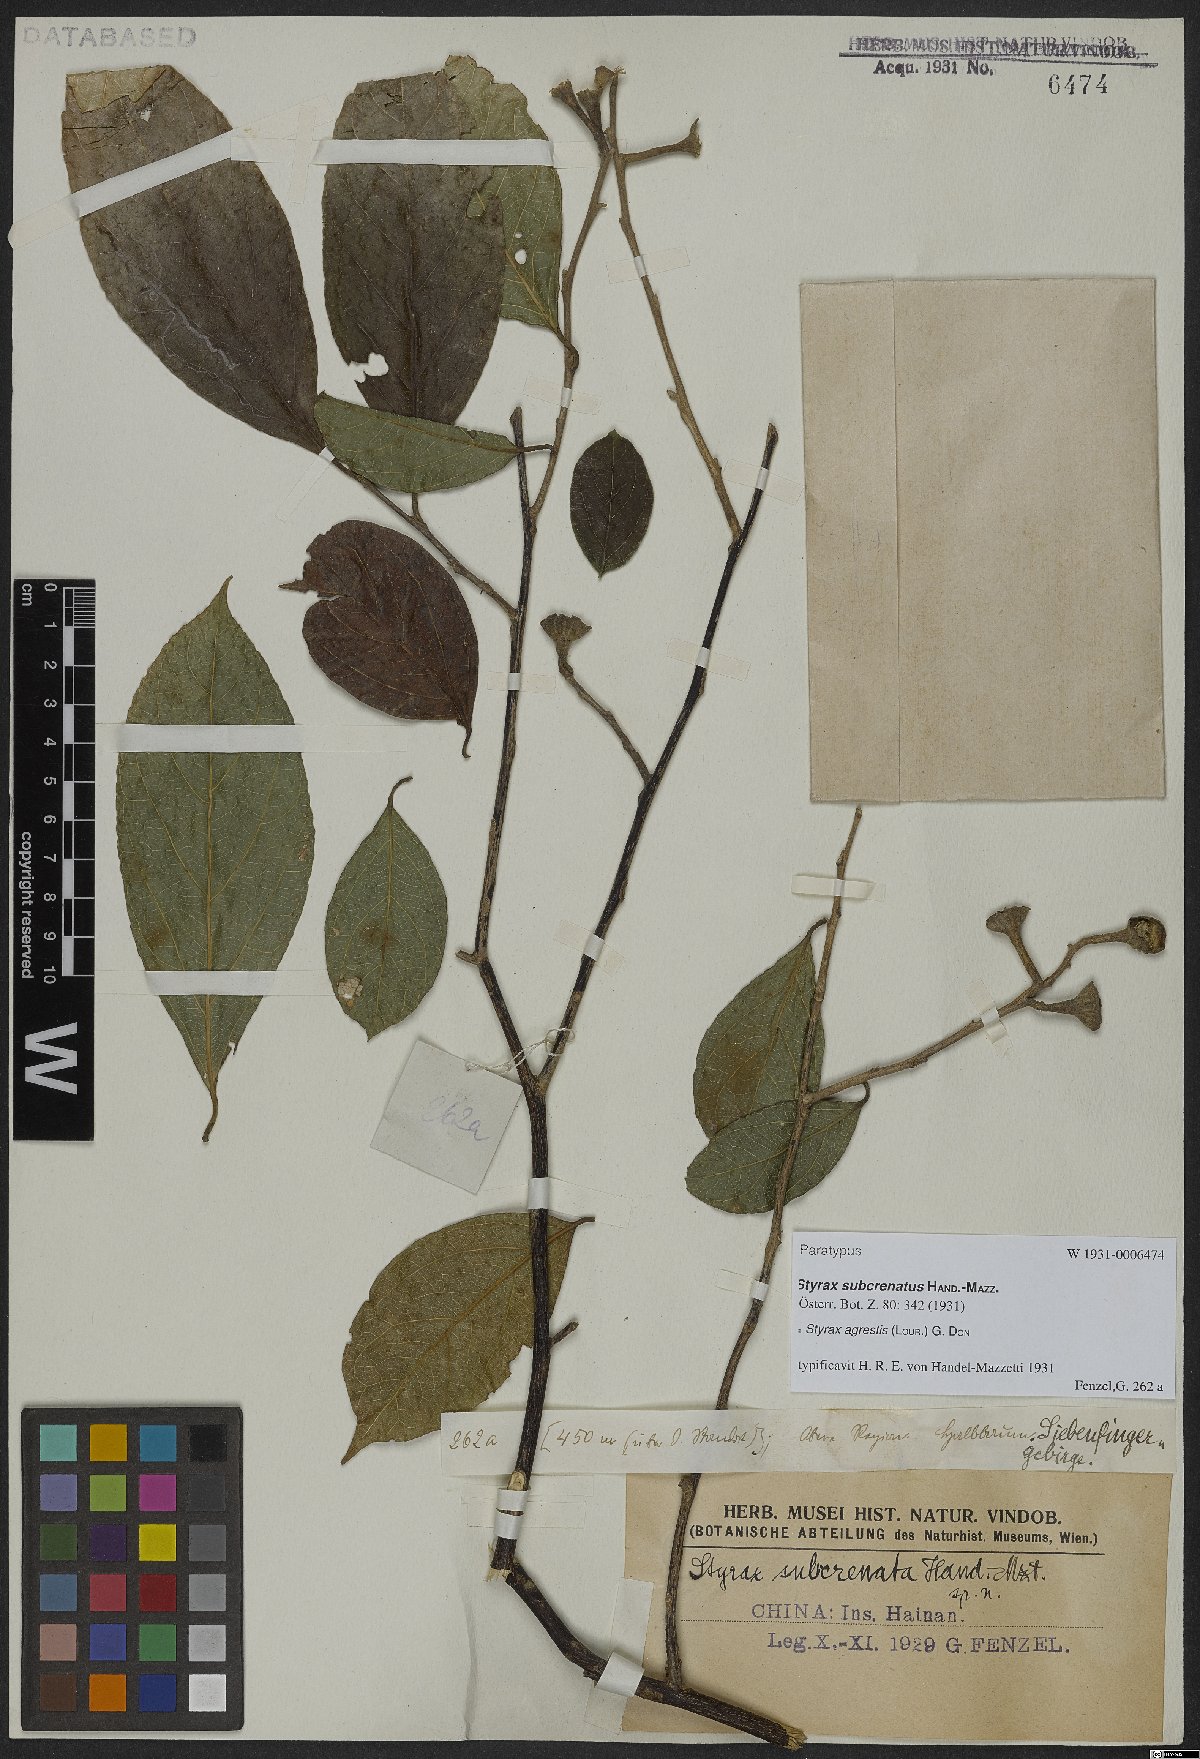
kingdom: Plantae
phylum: Tracheophyta
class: Magnoliopsida
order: Ericales
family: Styracaceae
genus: Styrax
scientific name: Styrax agrestis
